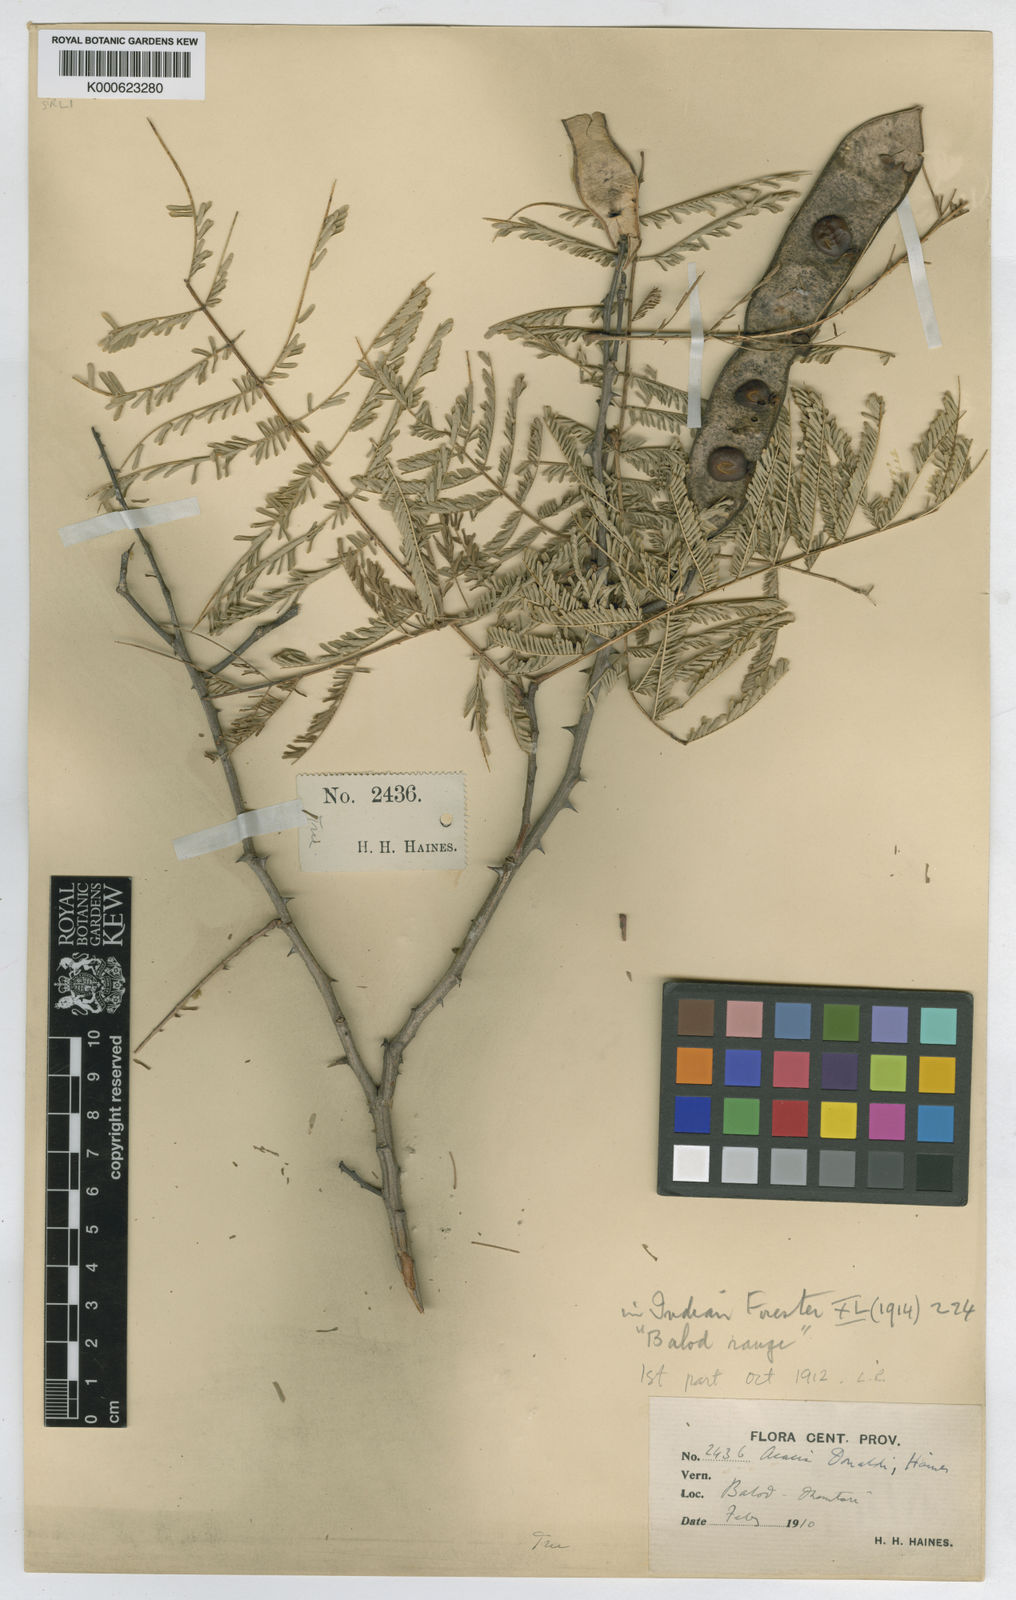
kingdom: Plantae
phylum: Tracheophyta
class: Magnoliopsida
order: Fabales
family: Fabaceae
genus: Senegalia
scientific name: Senegalia donaldi
